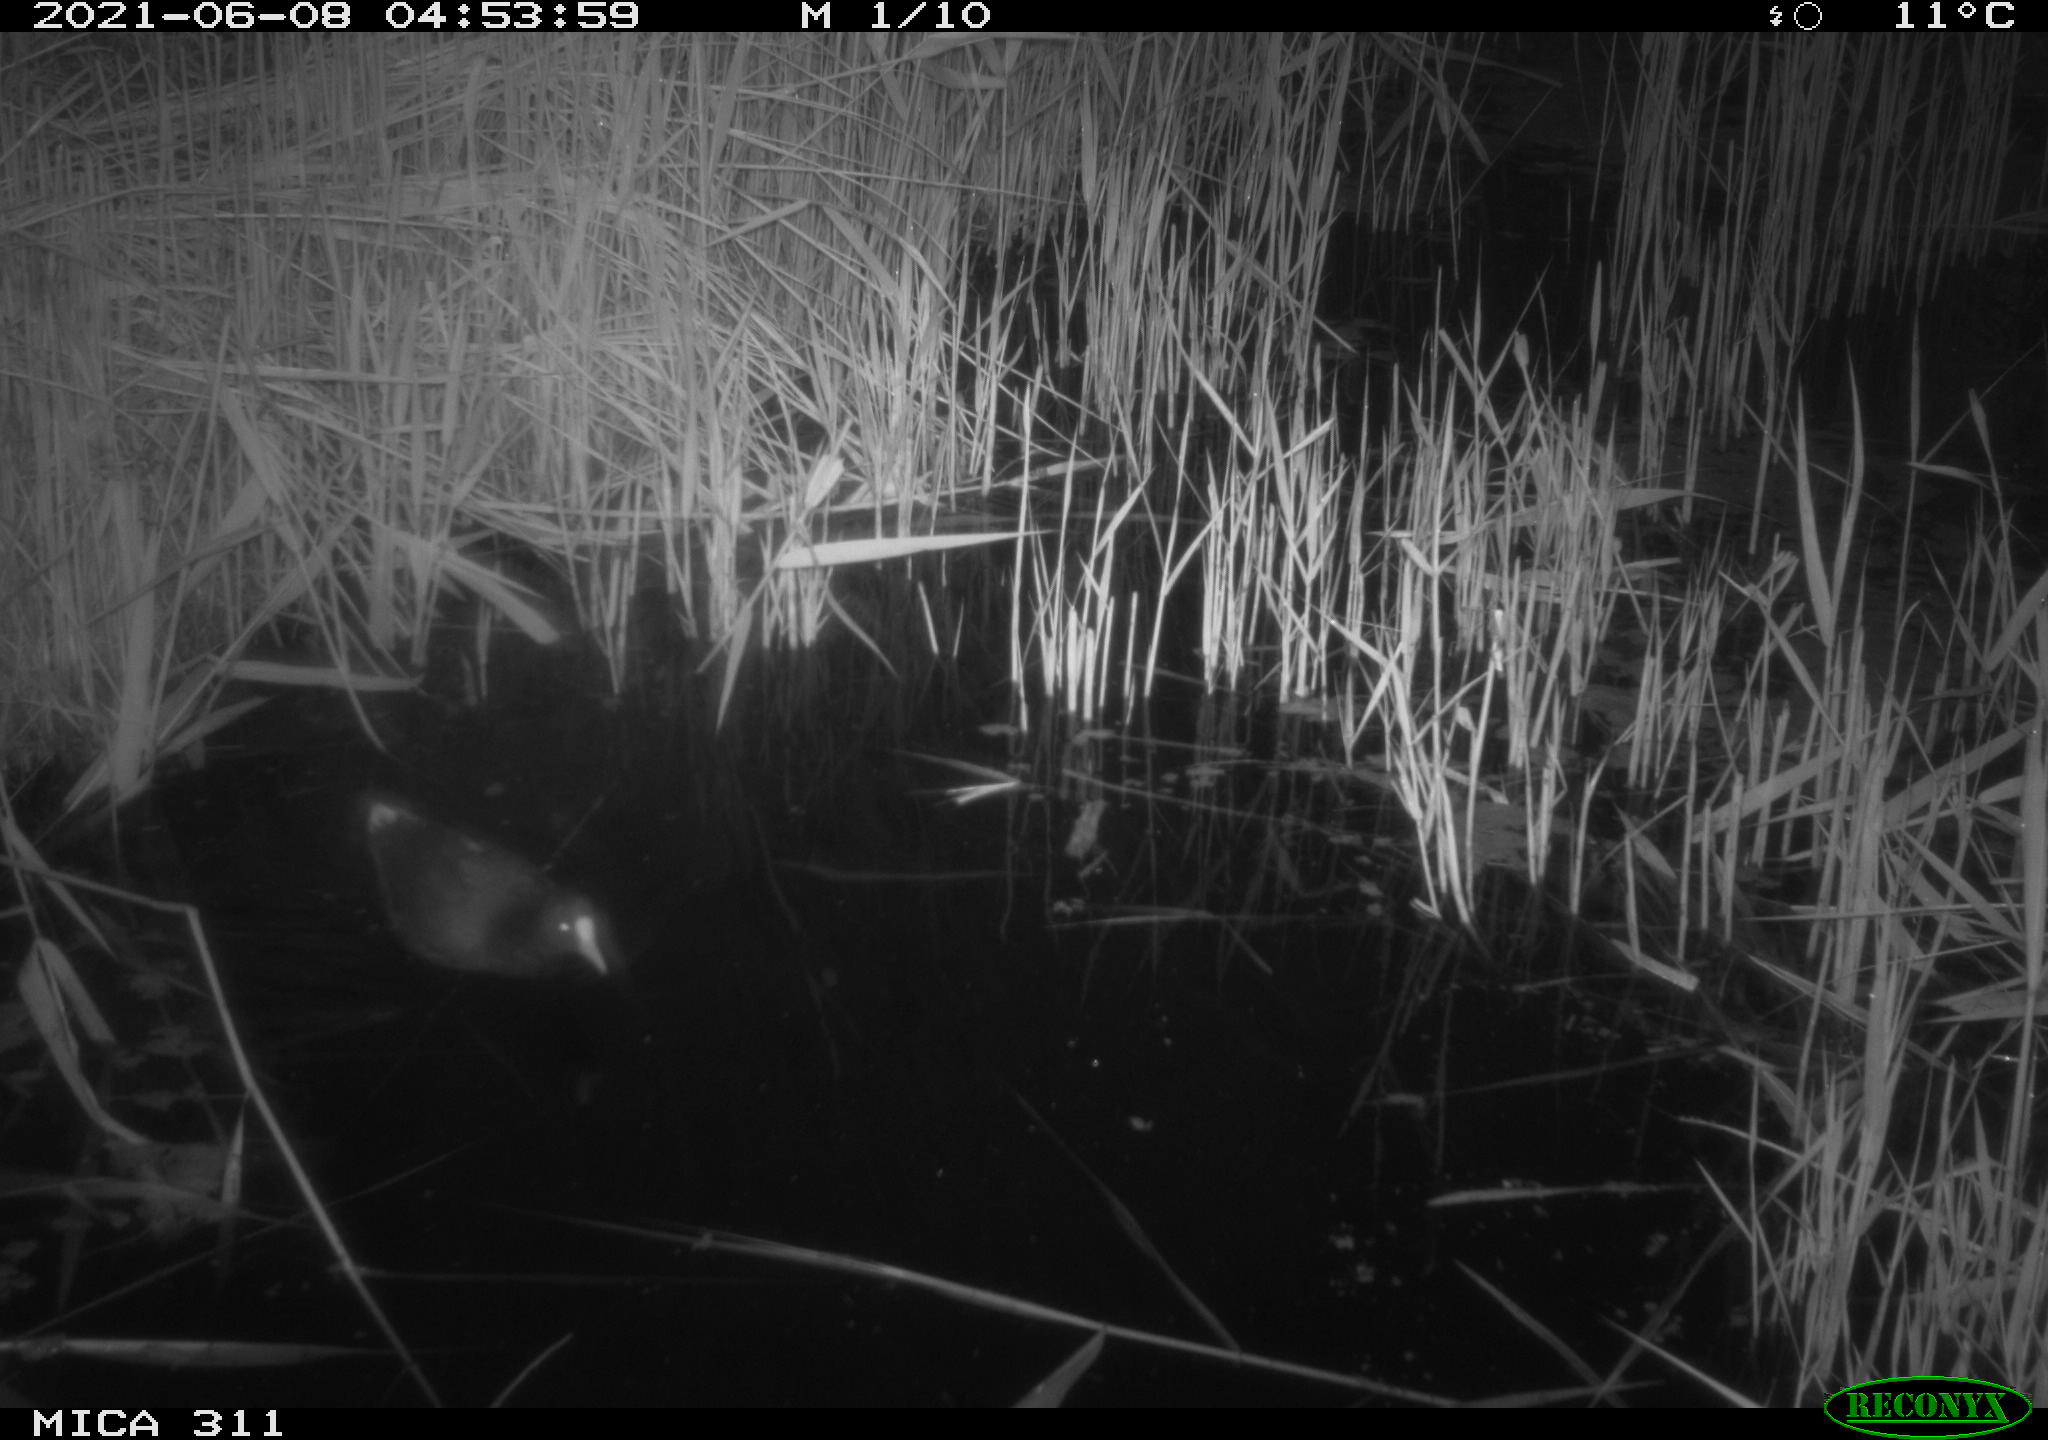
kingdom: Animalia
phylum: Chordata
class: Aves
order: Gruiformes
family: Rallidae
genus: Gallinula
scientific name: Gallinula chloropus
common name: Common moorhen
